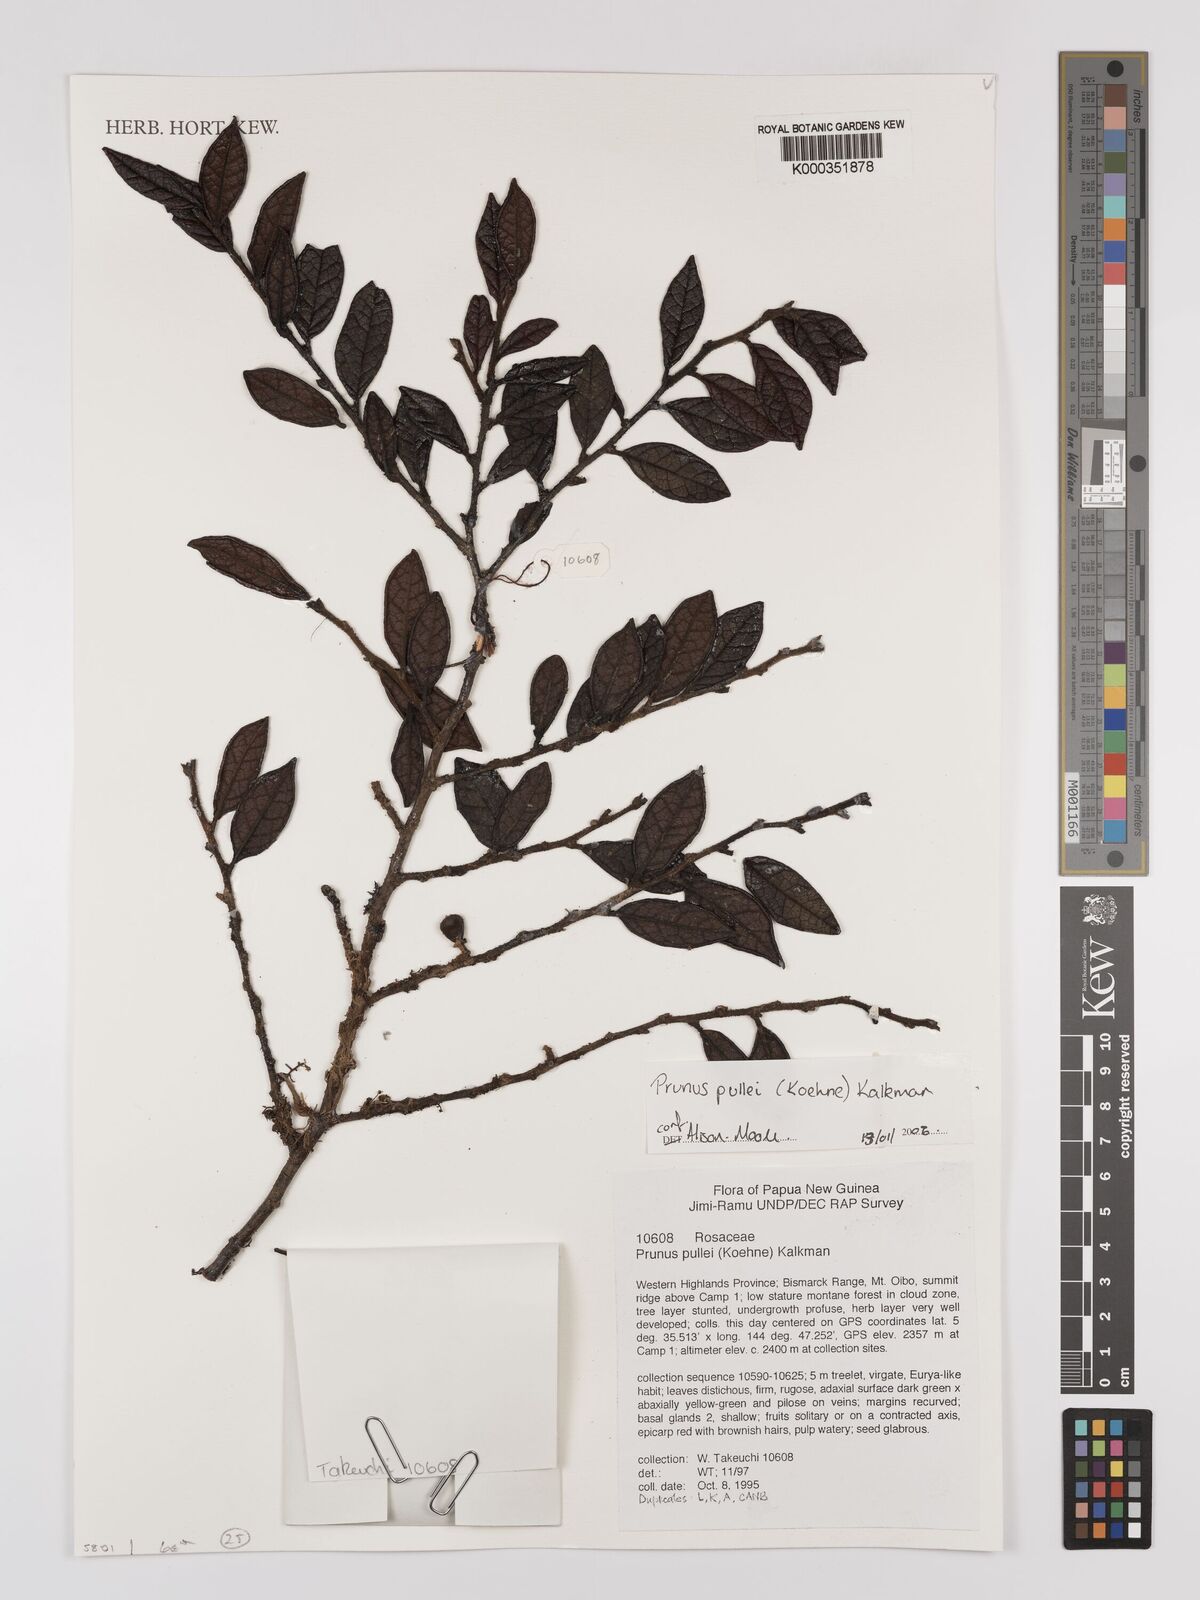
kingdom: Plantae
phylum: Tracheophyta
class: Magnoliopsida
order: Rosales
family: Rosaceae
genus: Prunus
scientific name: Prunus pullei
